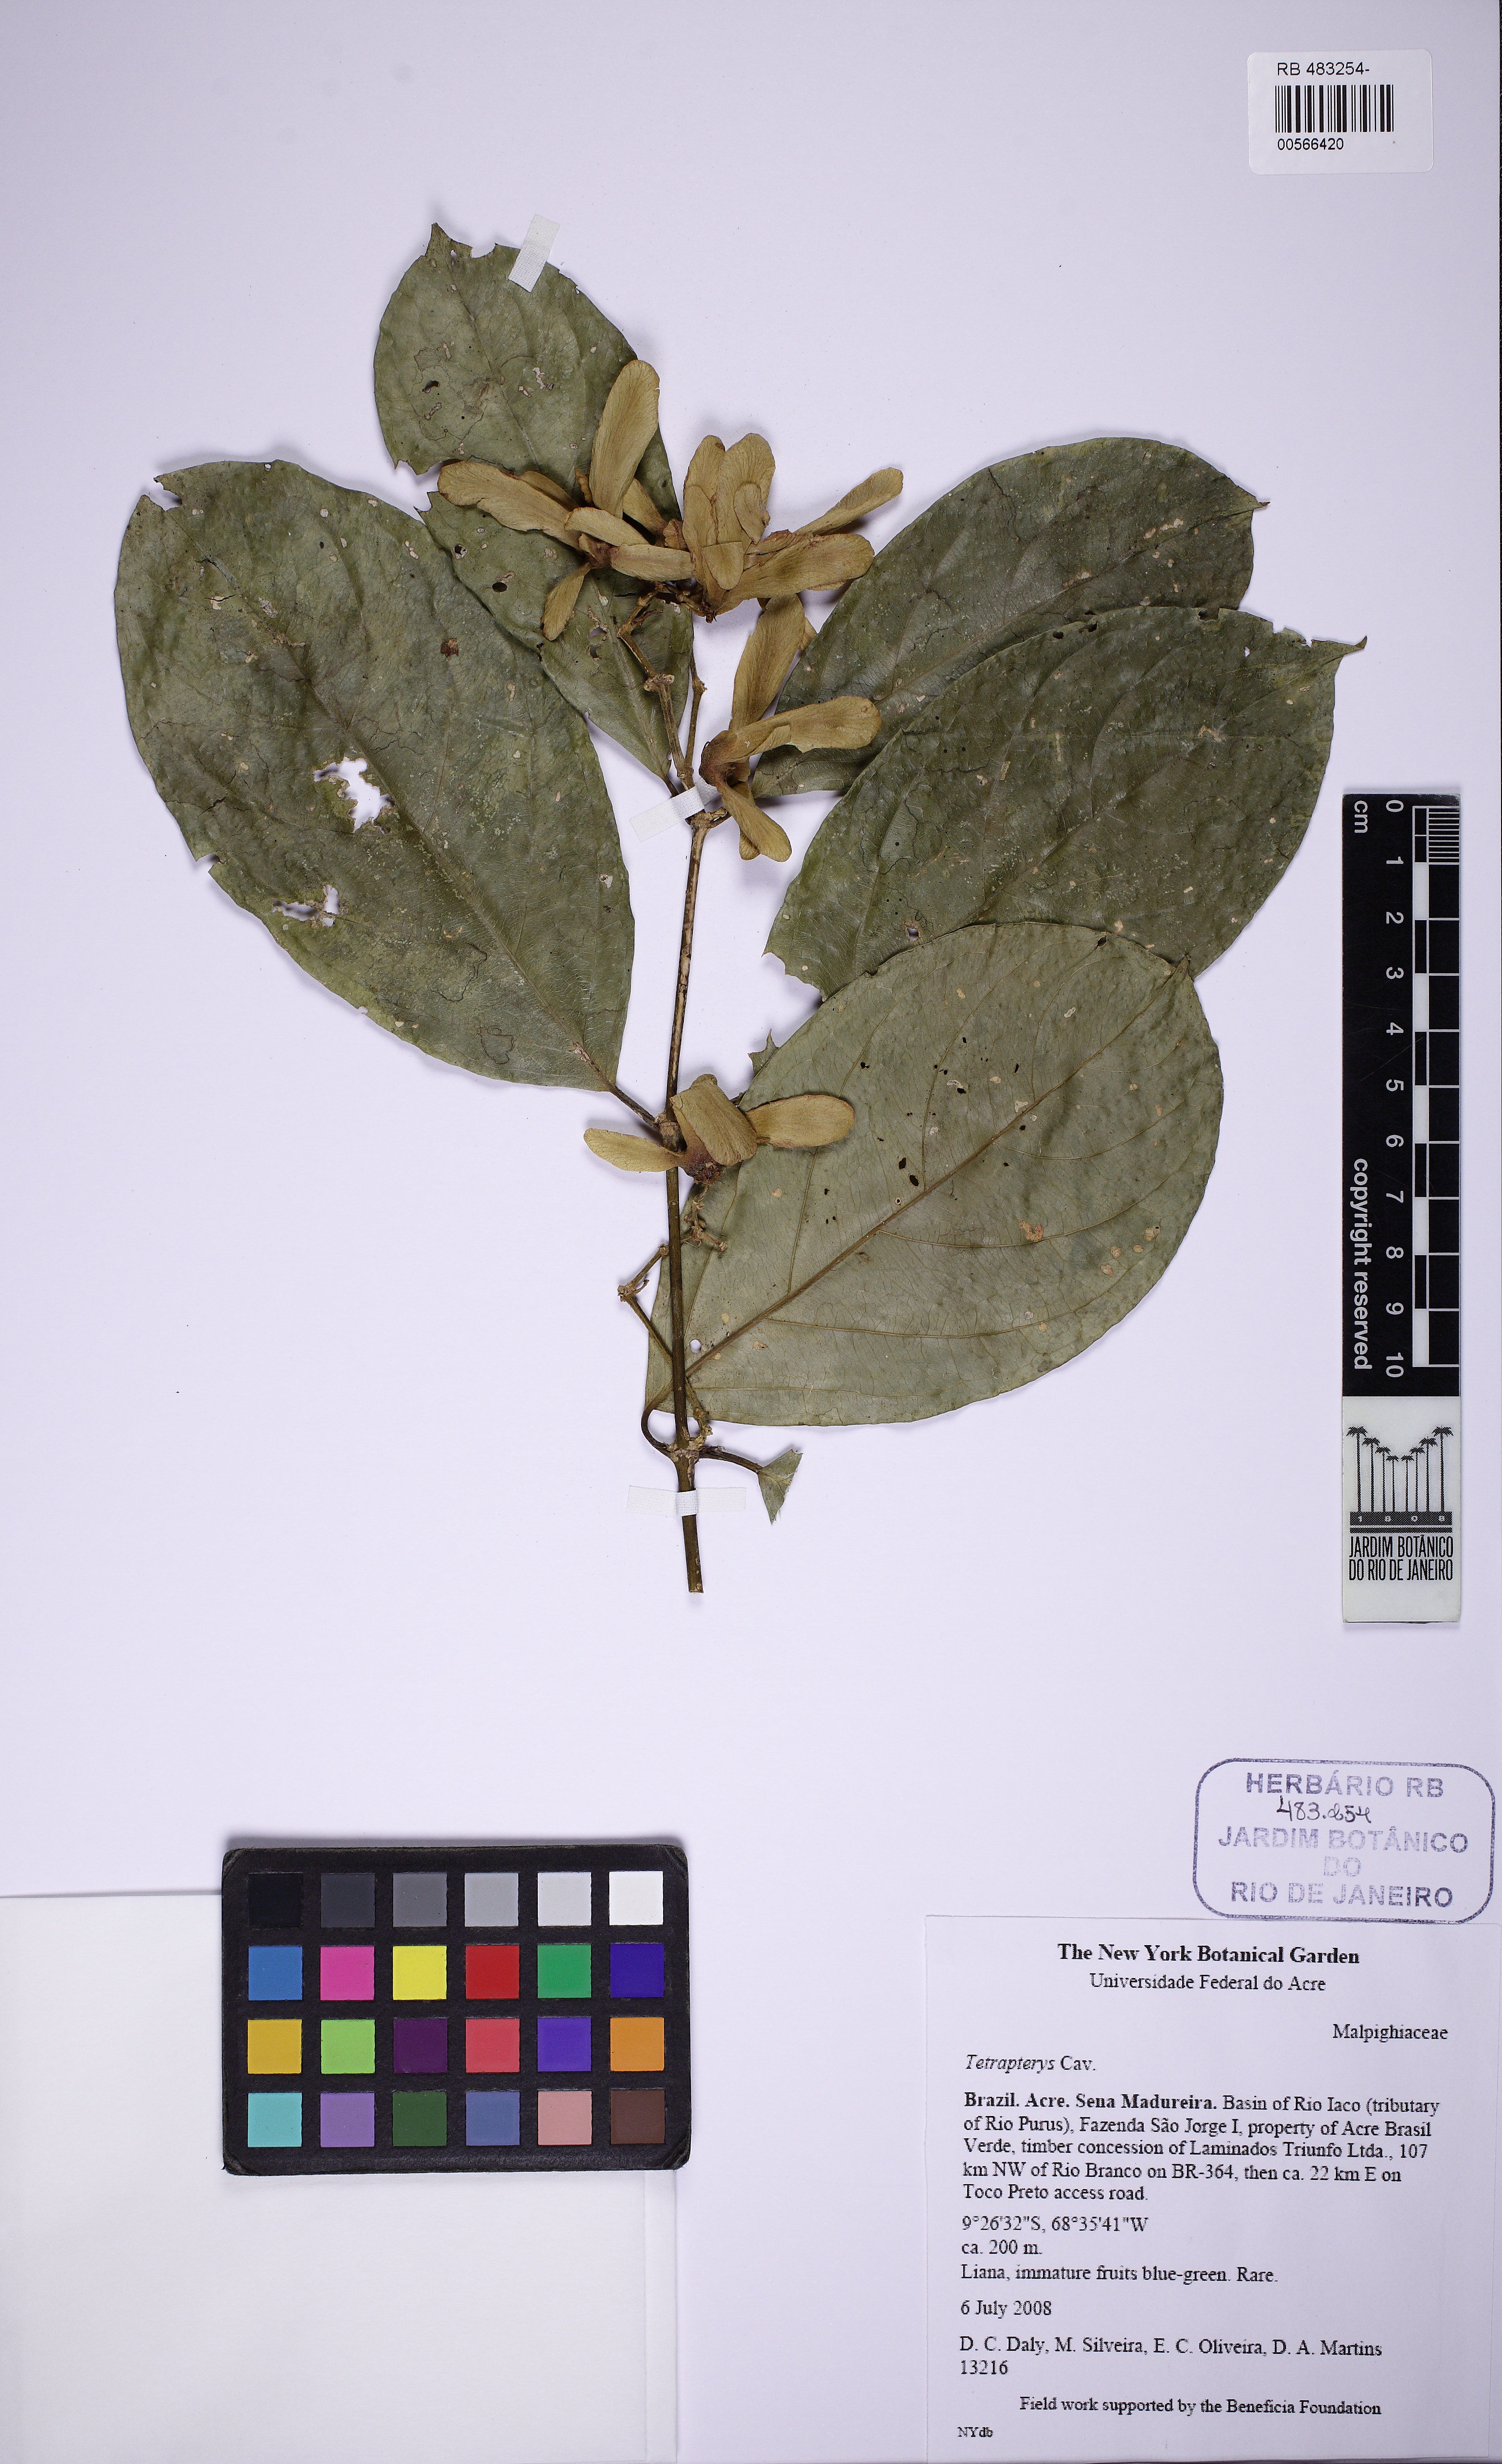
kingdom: Plantae
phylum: Tracheophyta
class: Magnoliopsida
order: Malpighiales
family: Malpighiaceae
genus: Tetrapterys
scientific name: Tetrapterys amazonica
